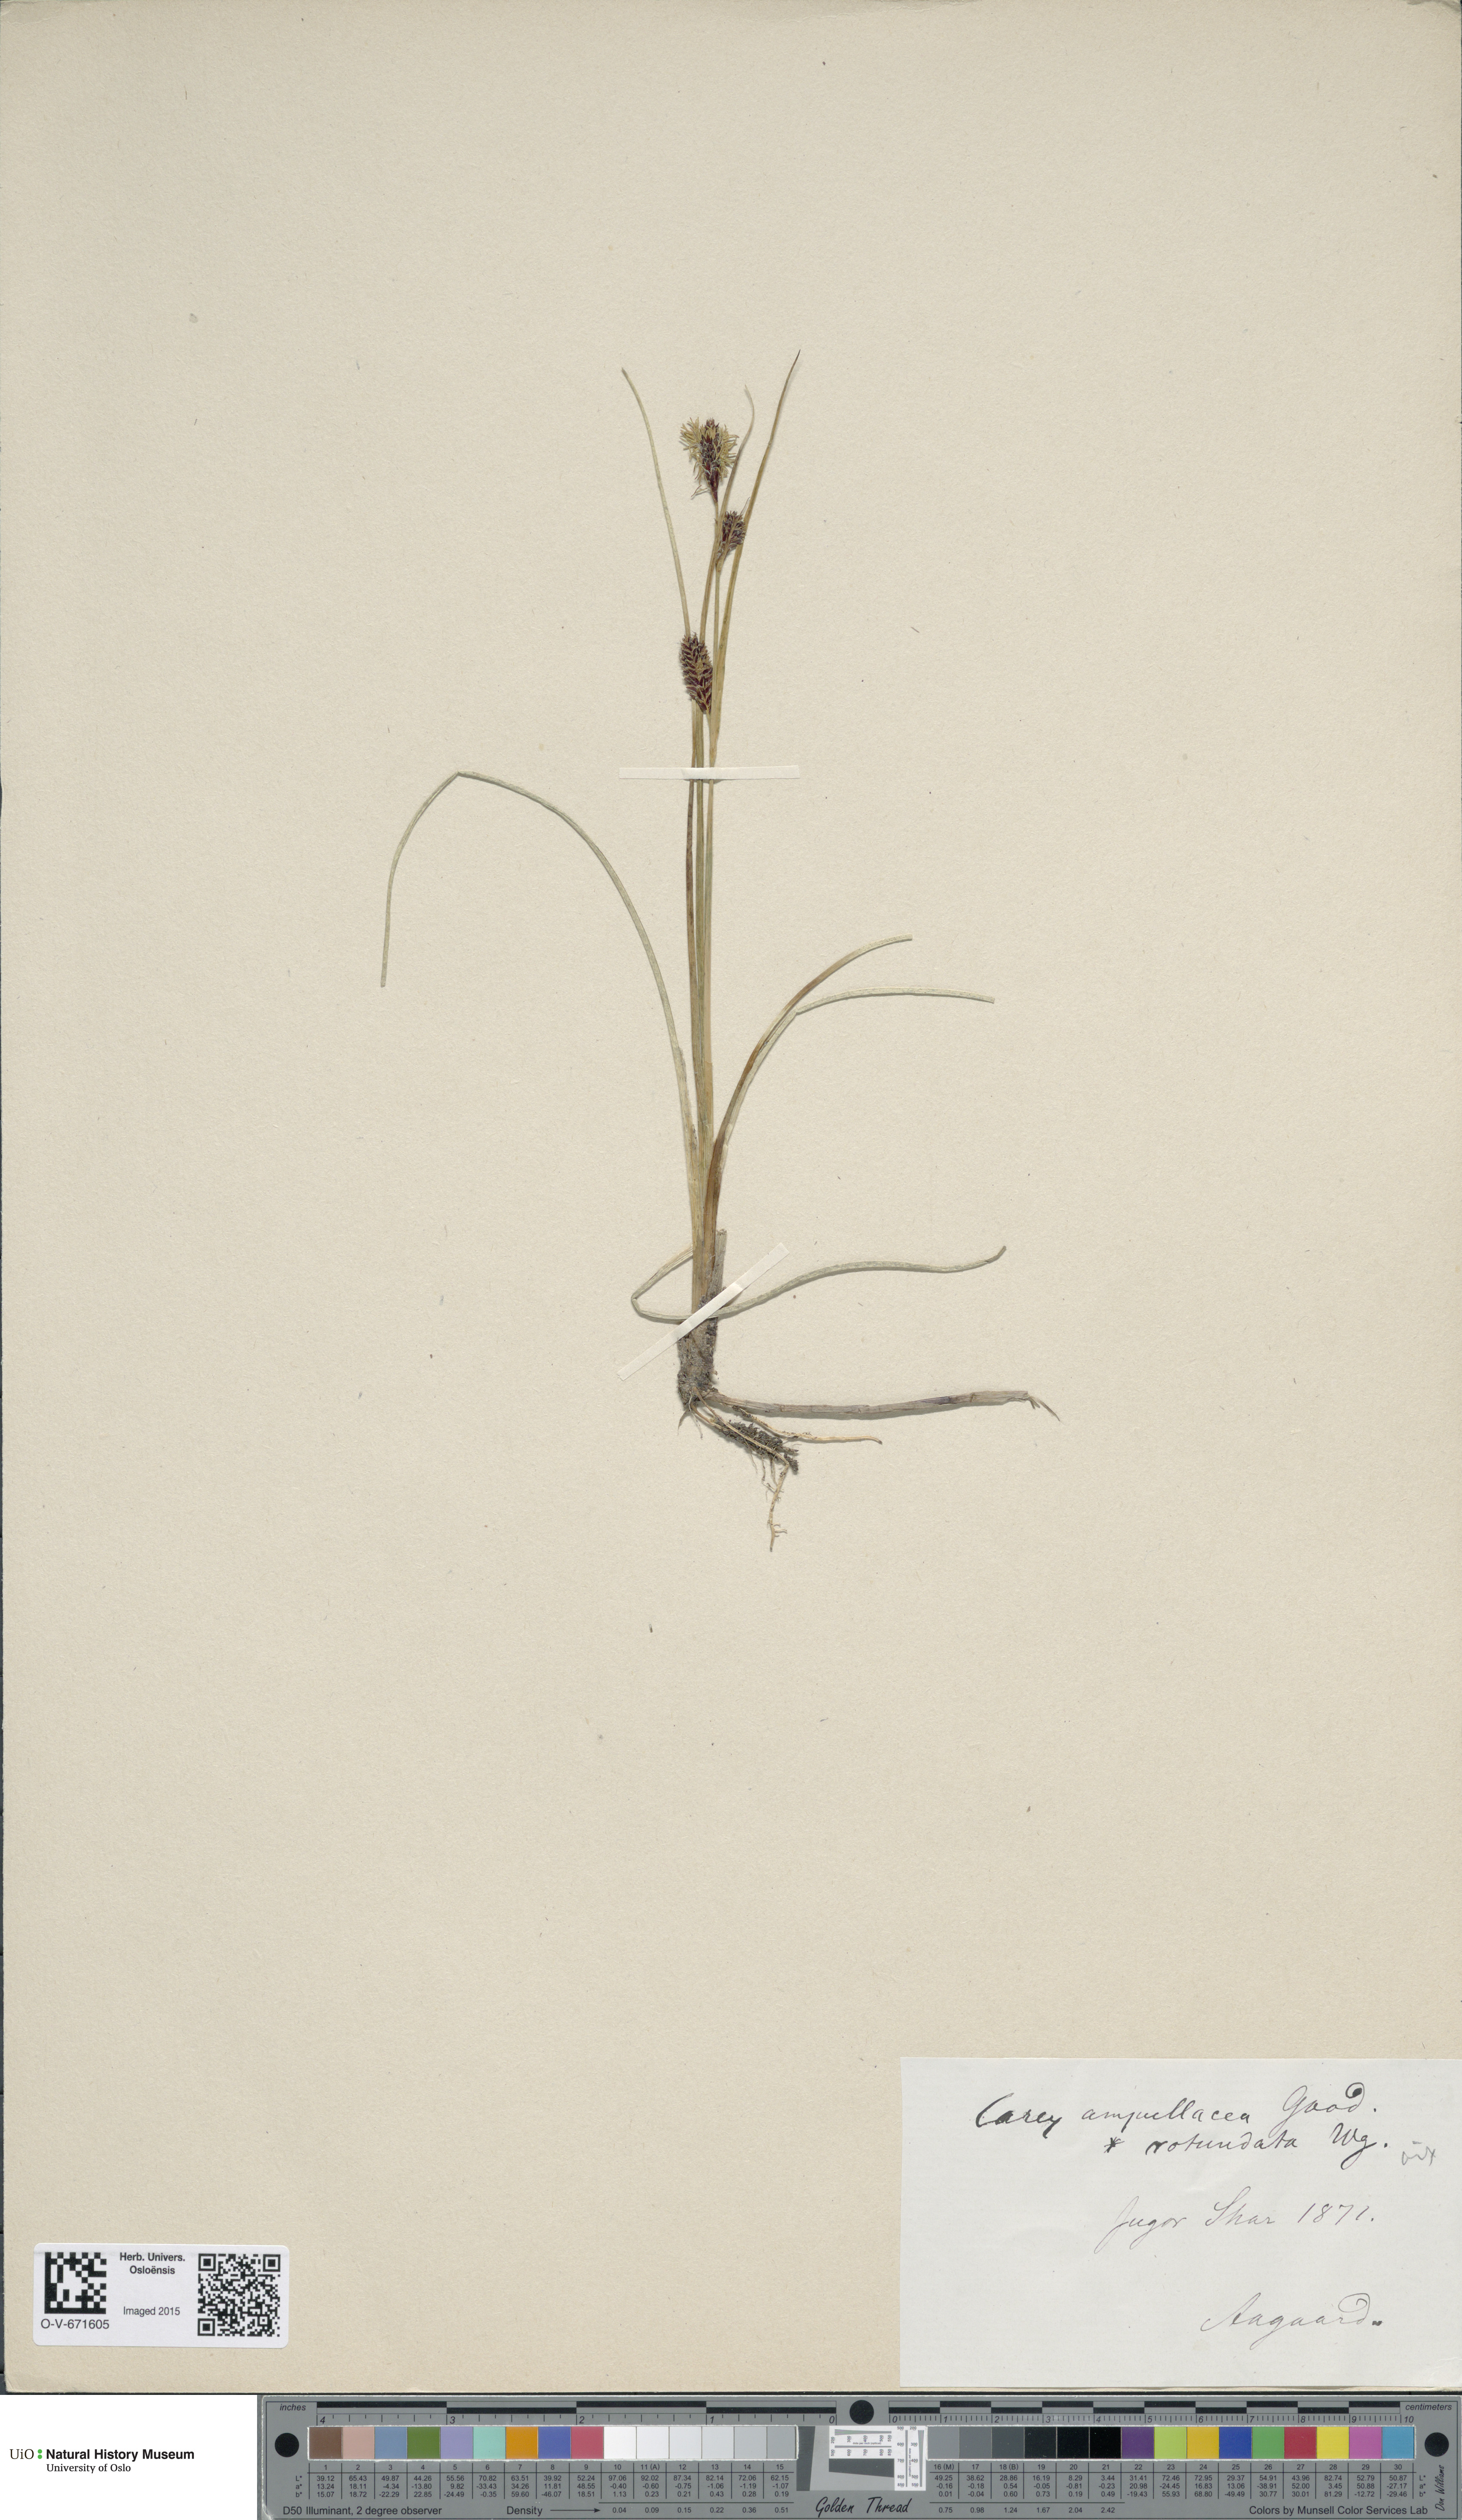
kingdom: Plantae
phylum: Tracheophyta
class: Liliopsida
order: Poales
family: Cyperaceae
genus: Carex
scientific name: Carex rotundata
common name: Round-fruited sedge
